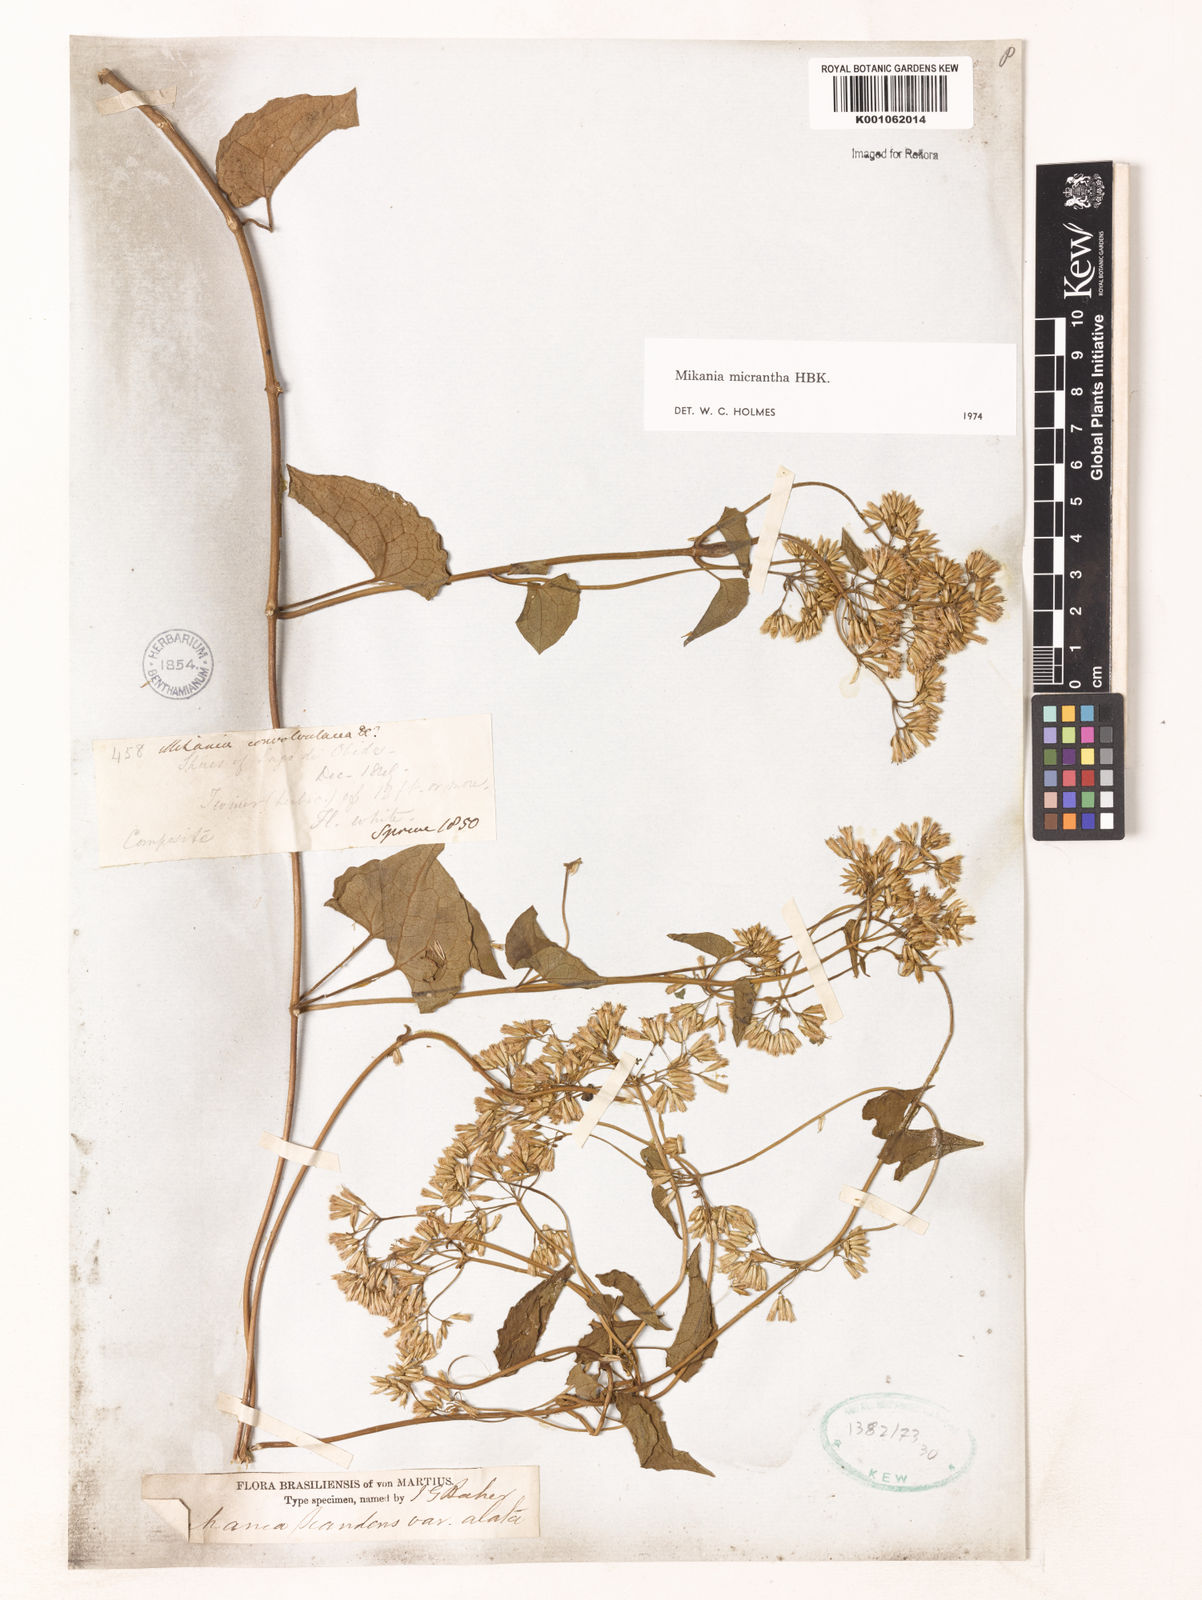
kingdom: Plantae
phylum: Tracheophyta
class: Magnoliopsida
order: Asterales
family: Asteraceae
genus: Mikania
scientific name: Mikania micrantha
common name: Mile-a-minute
